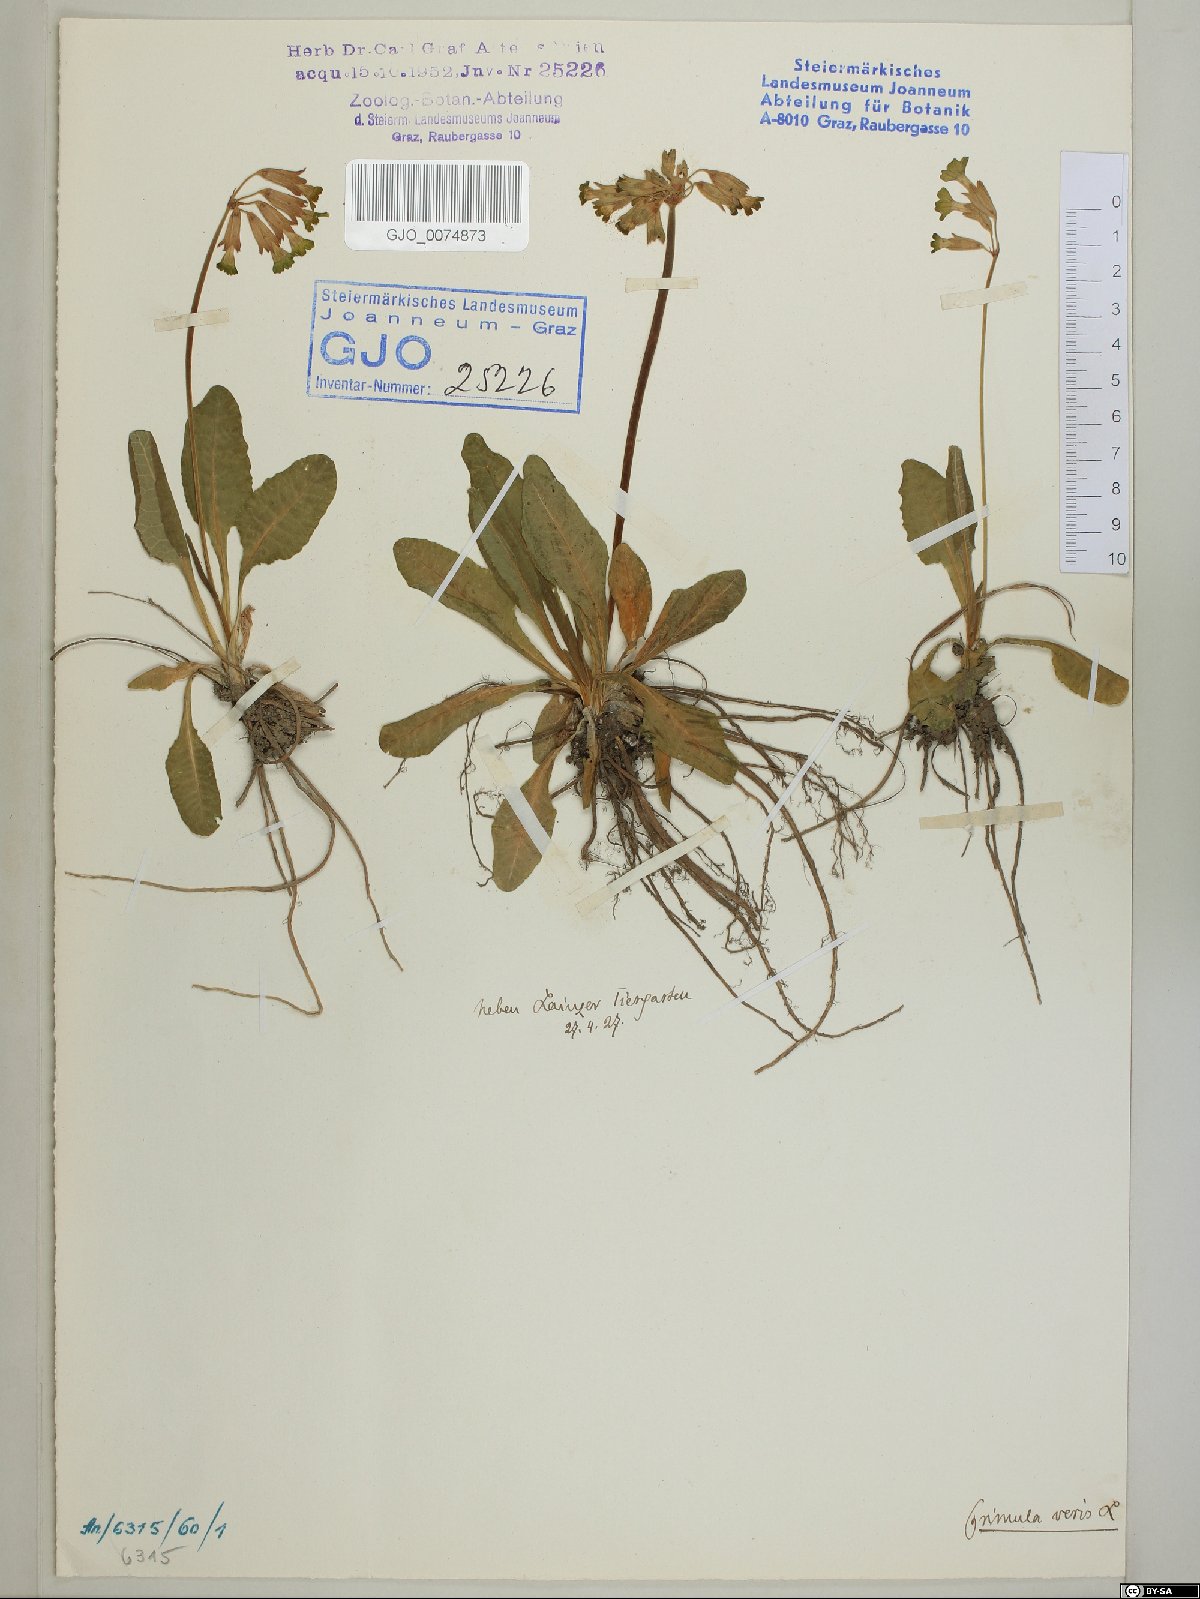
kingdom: Plantae
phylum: Tracheophyta
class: Magnoliopsida
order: Ericales
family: Primulaceae
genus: Primula
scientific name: Primula veris
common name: Cowslip
